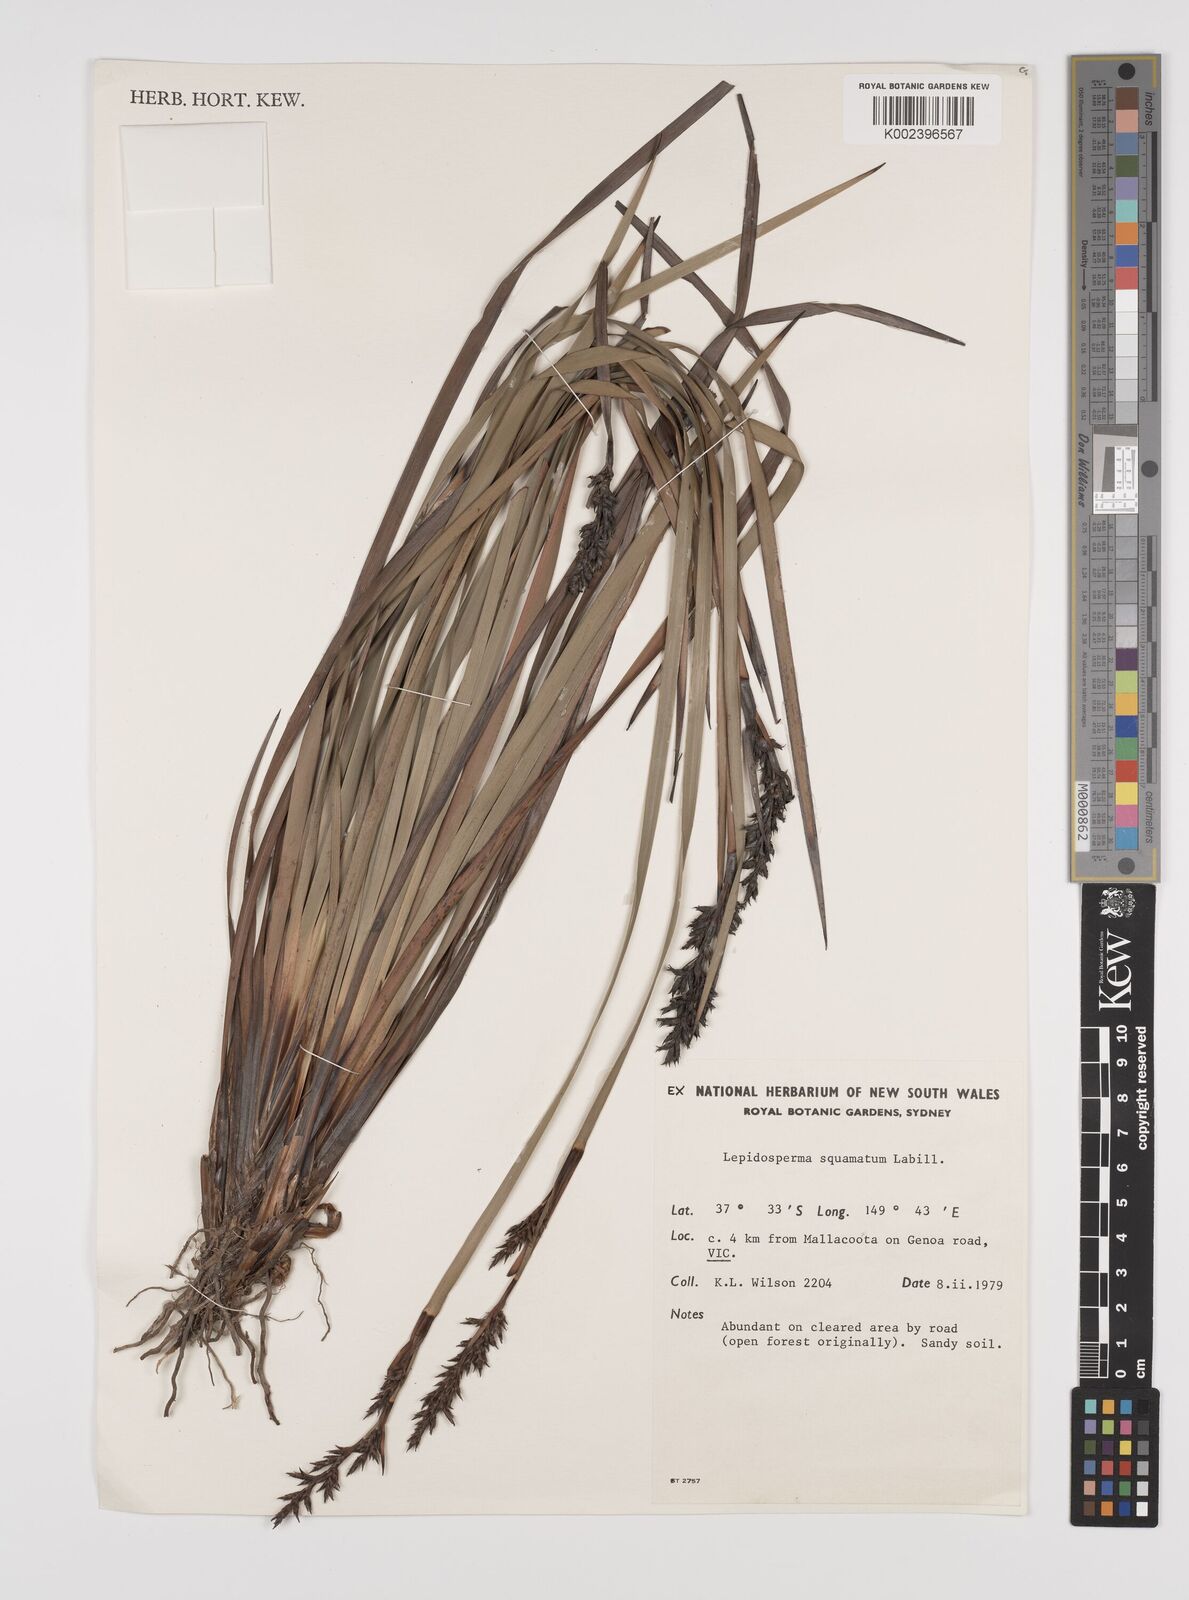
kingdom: Plantae
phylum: Tracheophyta
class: Liliopsida
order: Poales
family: Cyperaceae
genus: Lepidosperma
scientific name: Lepidosperma concavum
